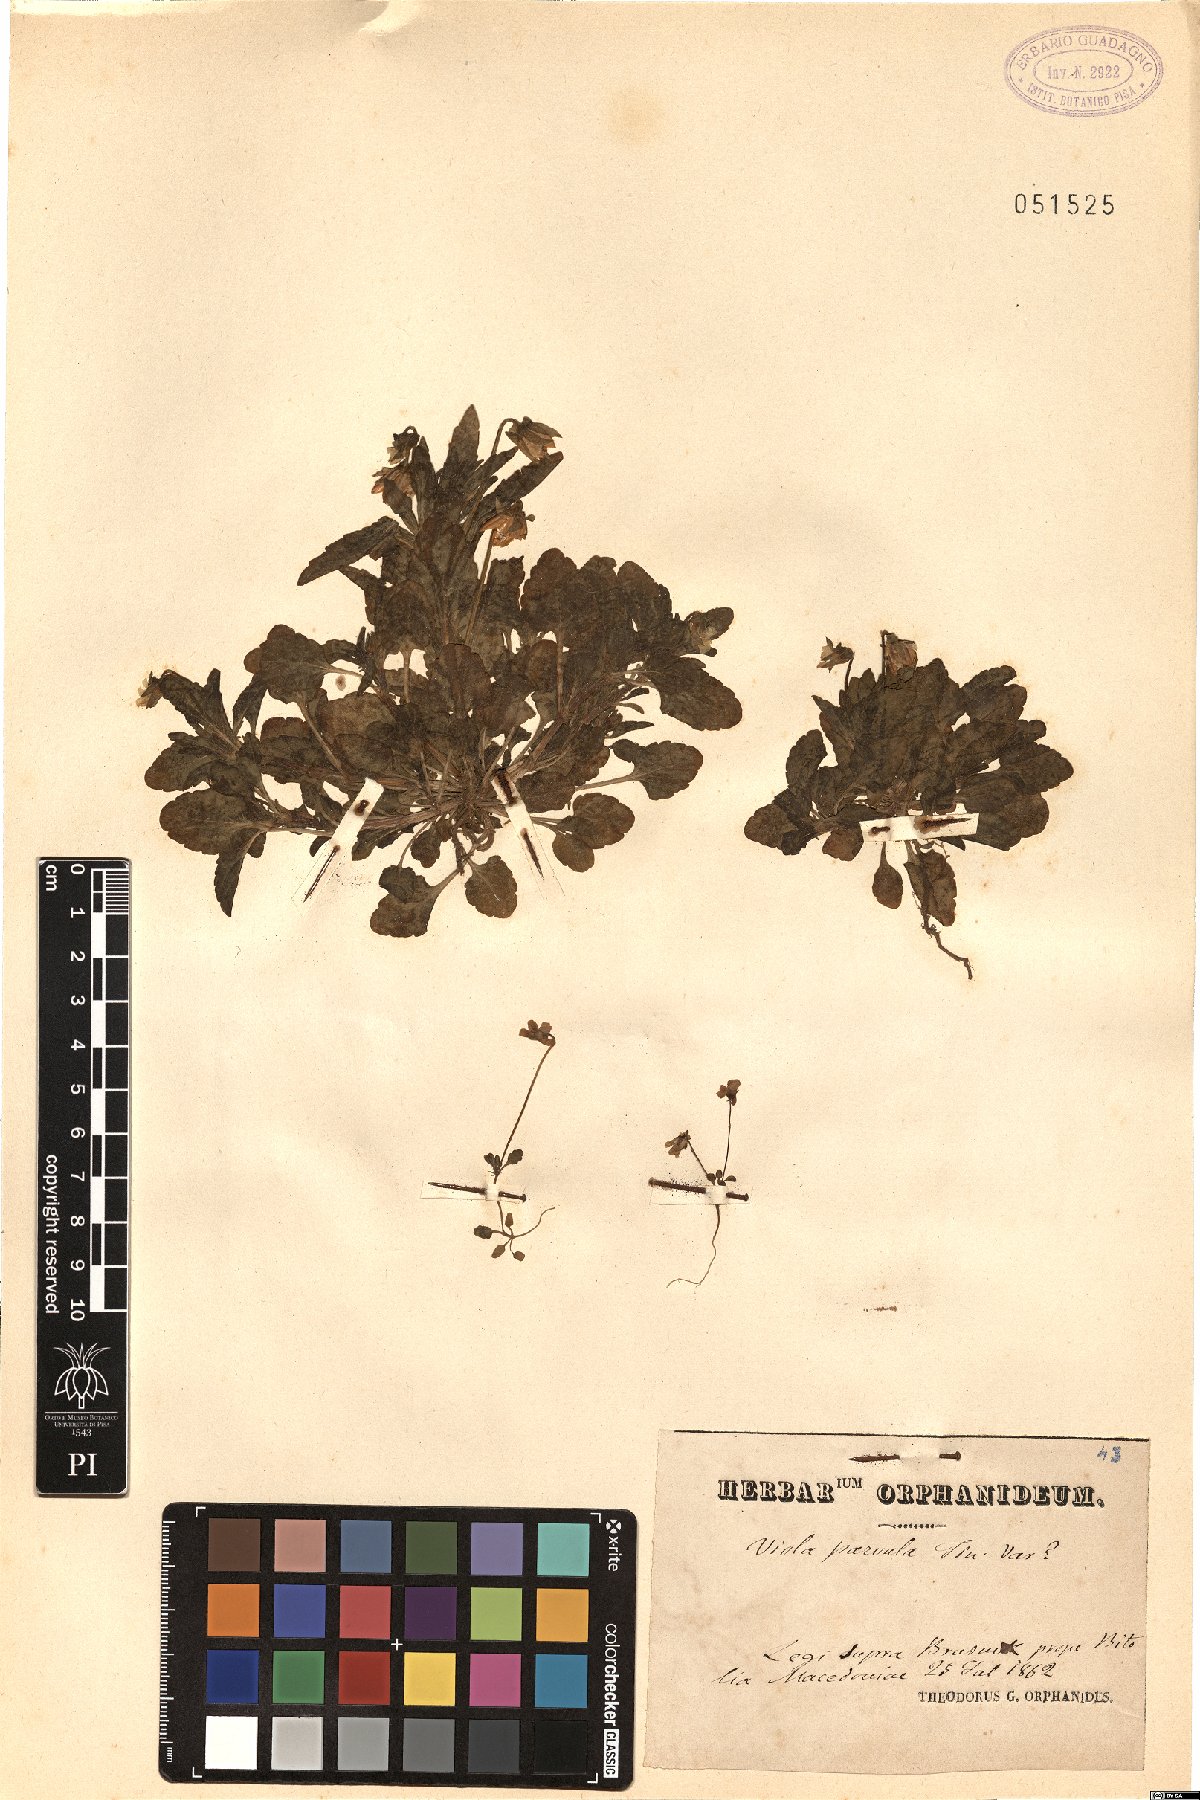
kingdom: Plantae
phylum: Tracheophyta
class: Magnoliopsida
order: Malpighiales
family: Violaceae
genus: Viola
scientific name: Viola parvula
